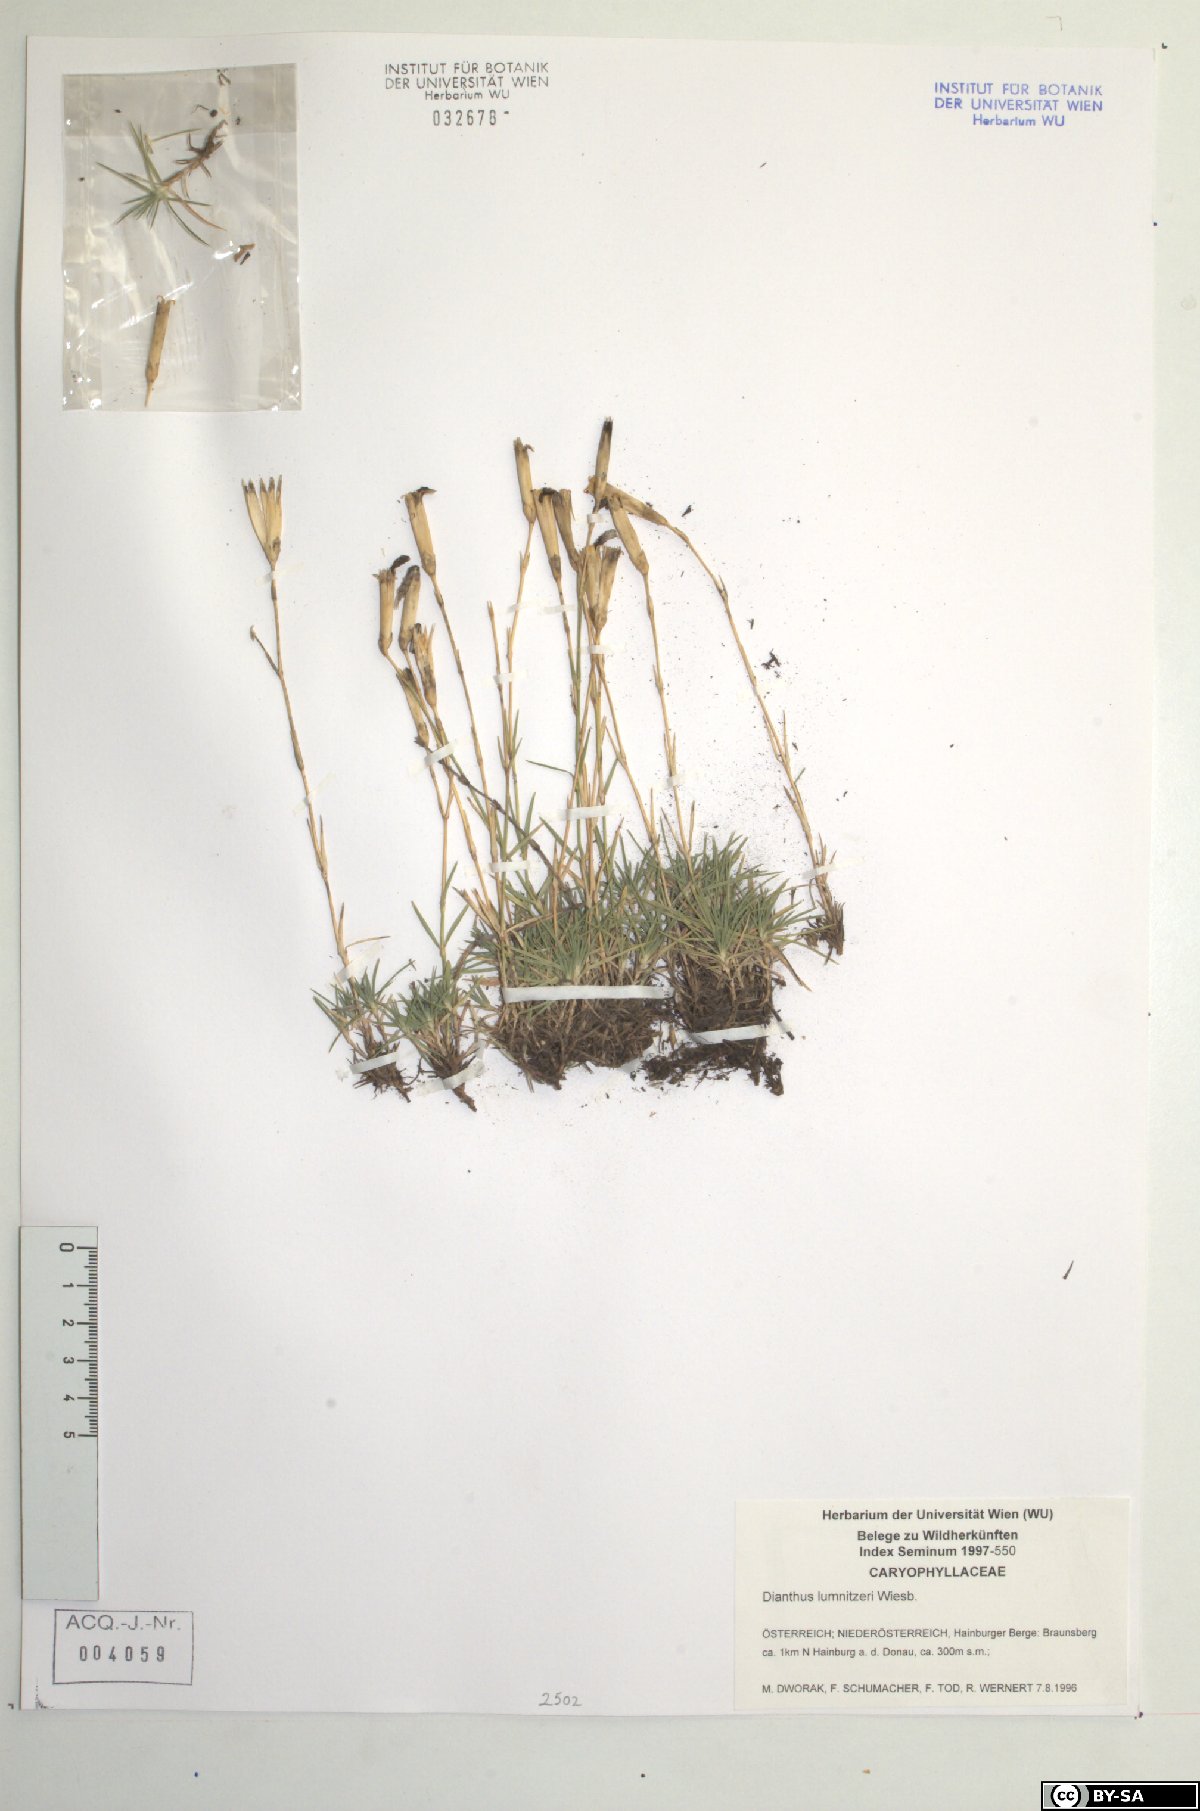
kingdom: Plantae
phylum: Tracheophyta
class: Magnoliopsida
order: Caryophyllales
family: Caryophyllaceae
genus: Dianthus
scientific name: Dianthus praecox
